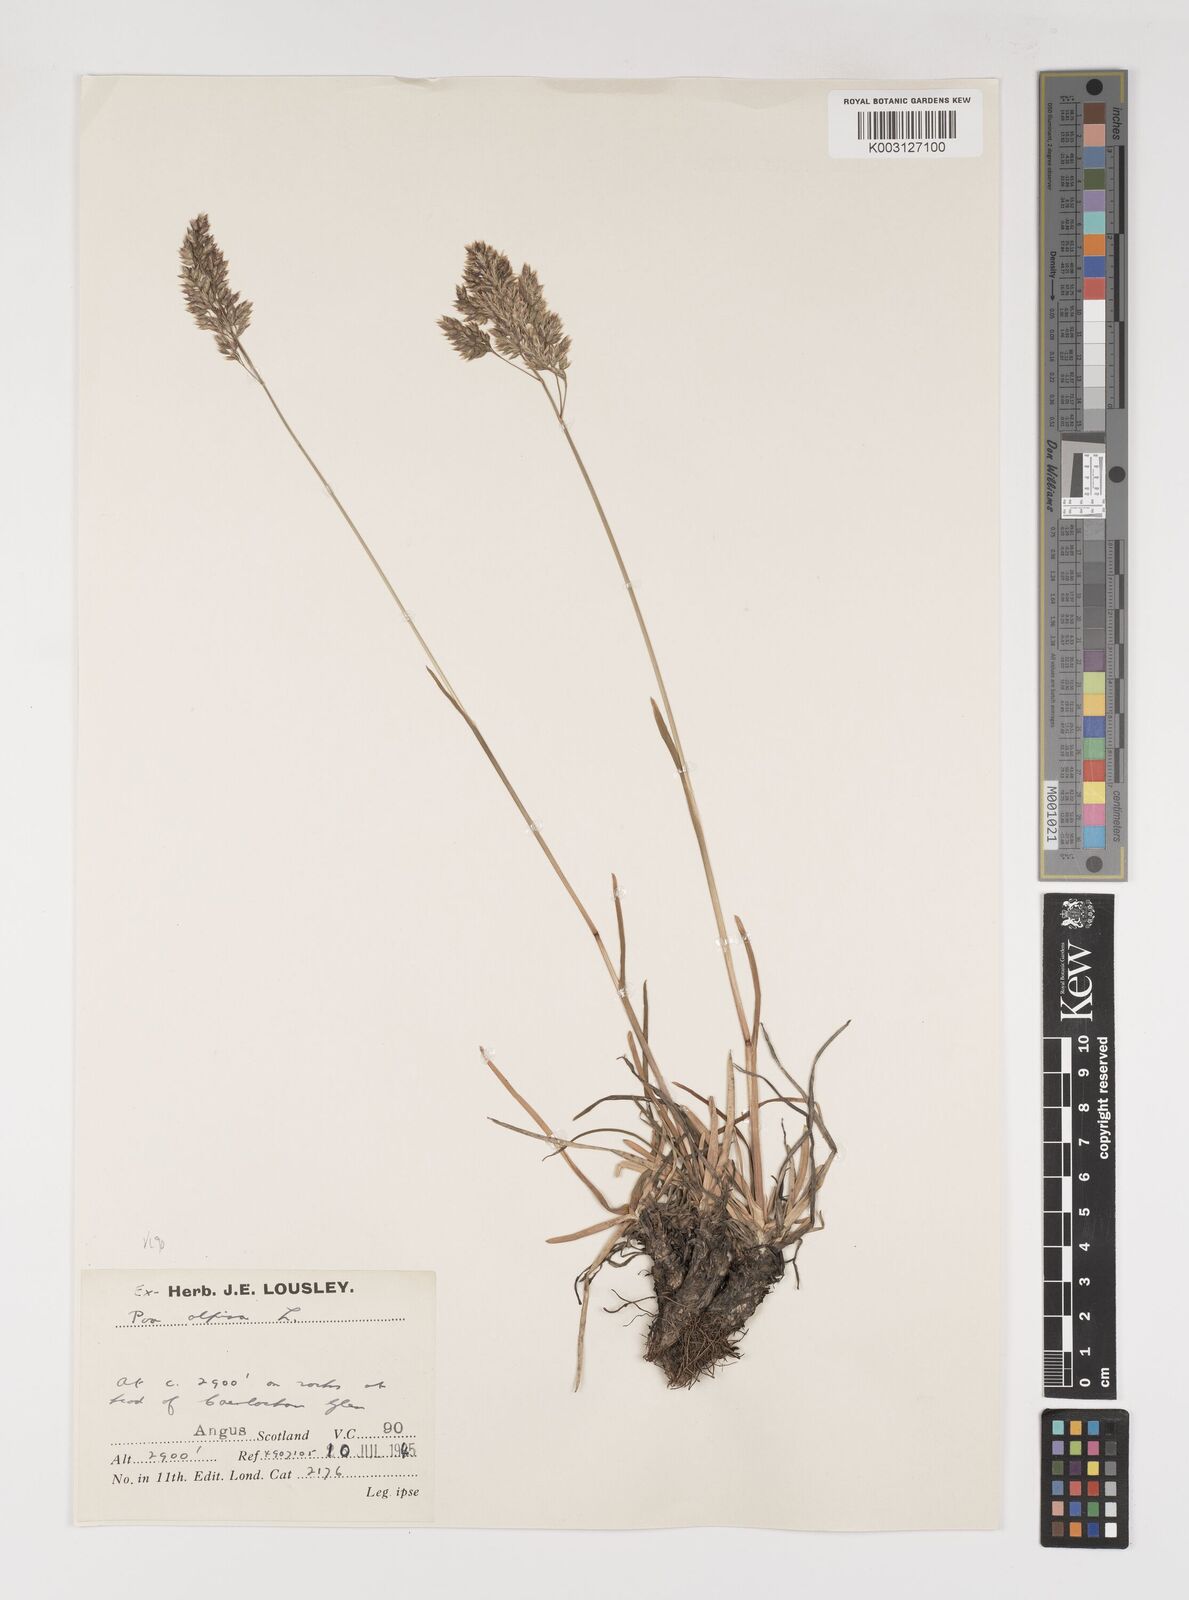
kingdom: Plantae
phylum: Tracheophyta
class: Liliopsida
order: Poales
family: Poaceae
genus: Poa
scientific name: Poa alpina
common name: Alpine bluegrass
